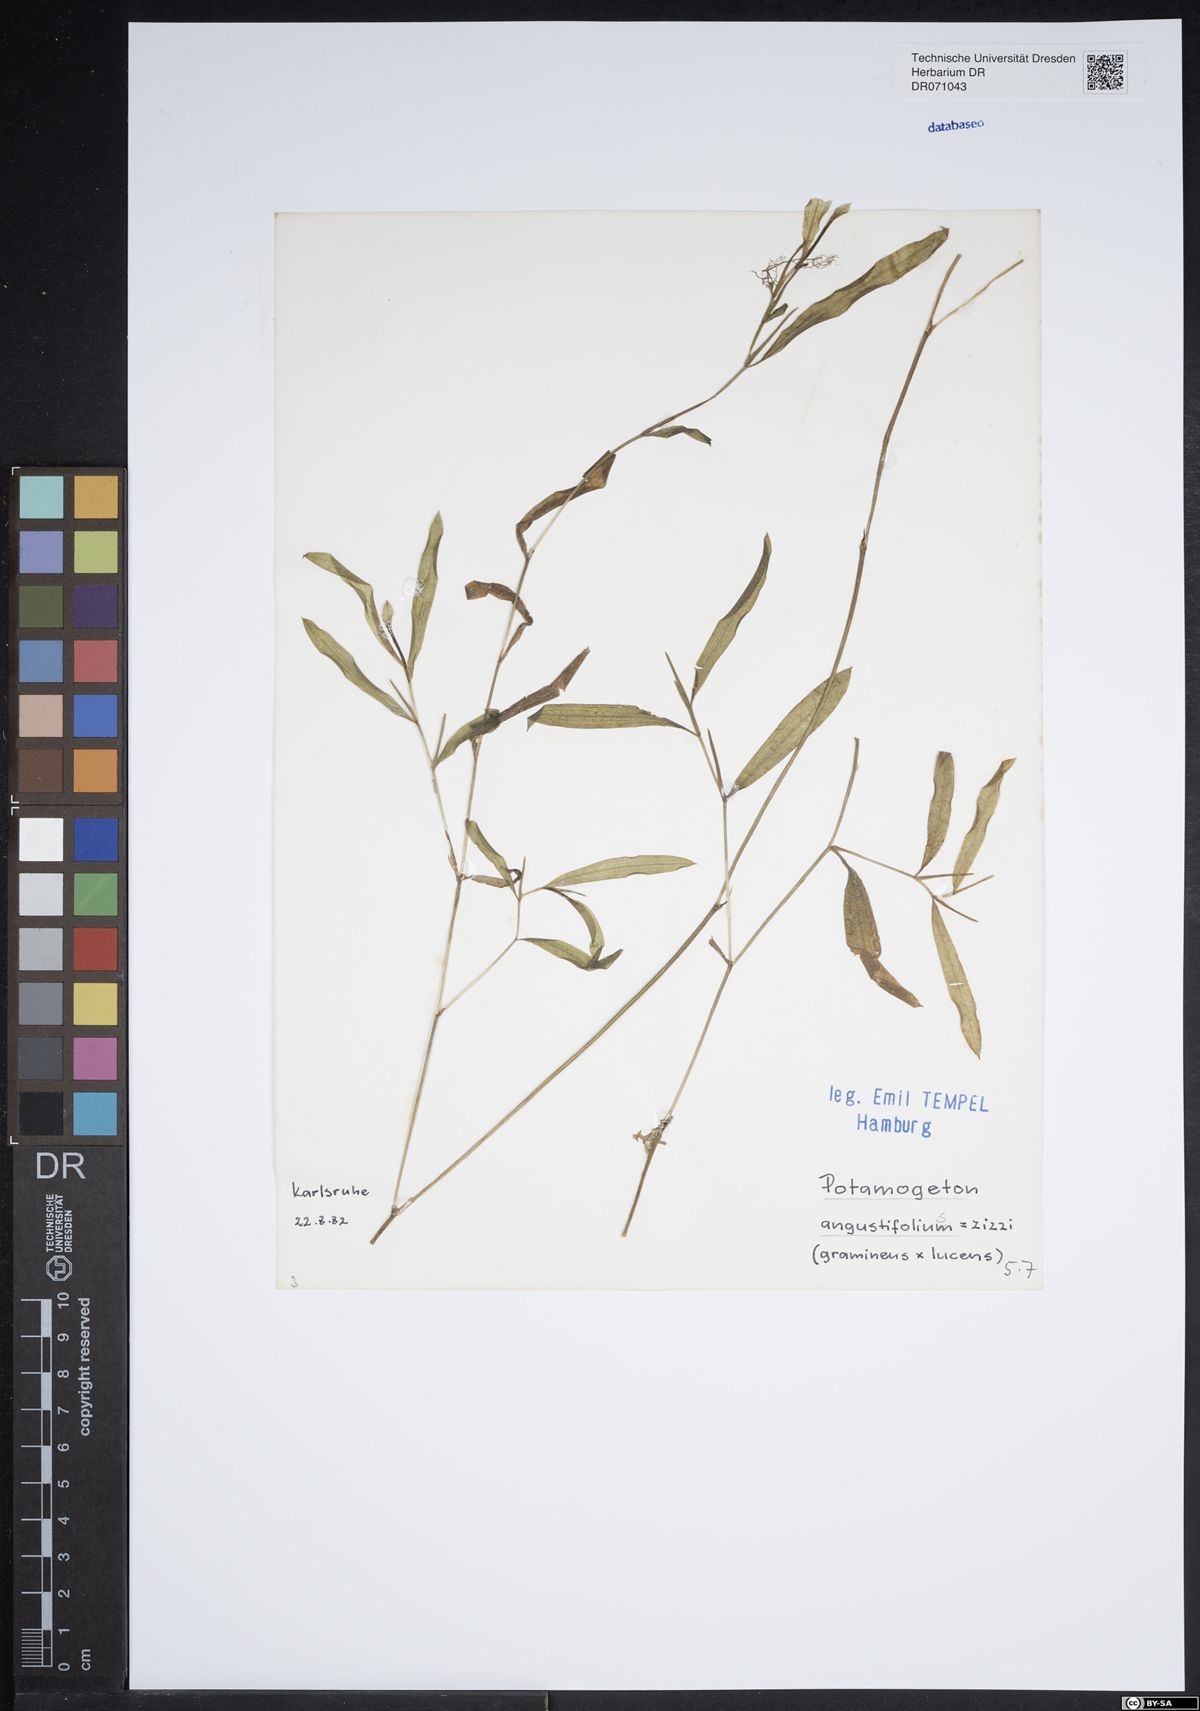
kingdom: Plantae
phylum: Tracheophyta
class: Liliopsida
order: Alismatales
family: Potamogetonaceae
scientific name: Potamogetonaceae
